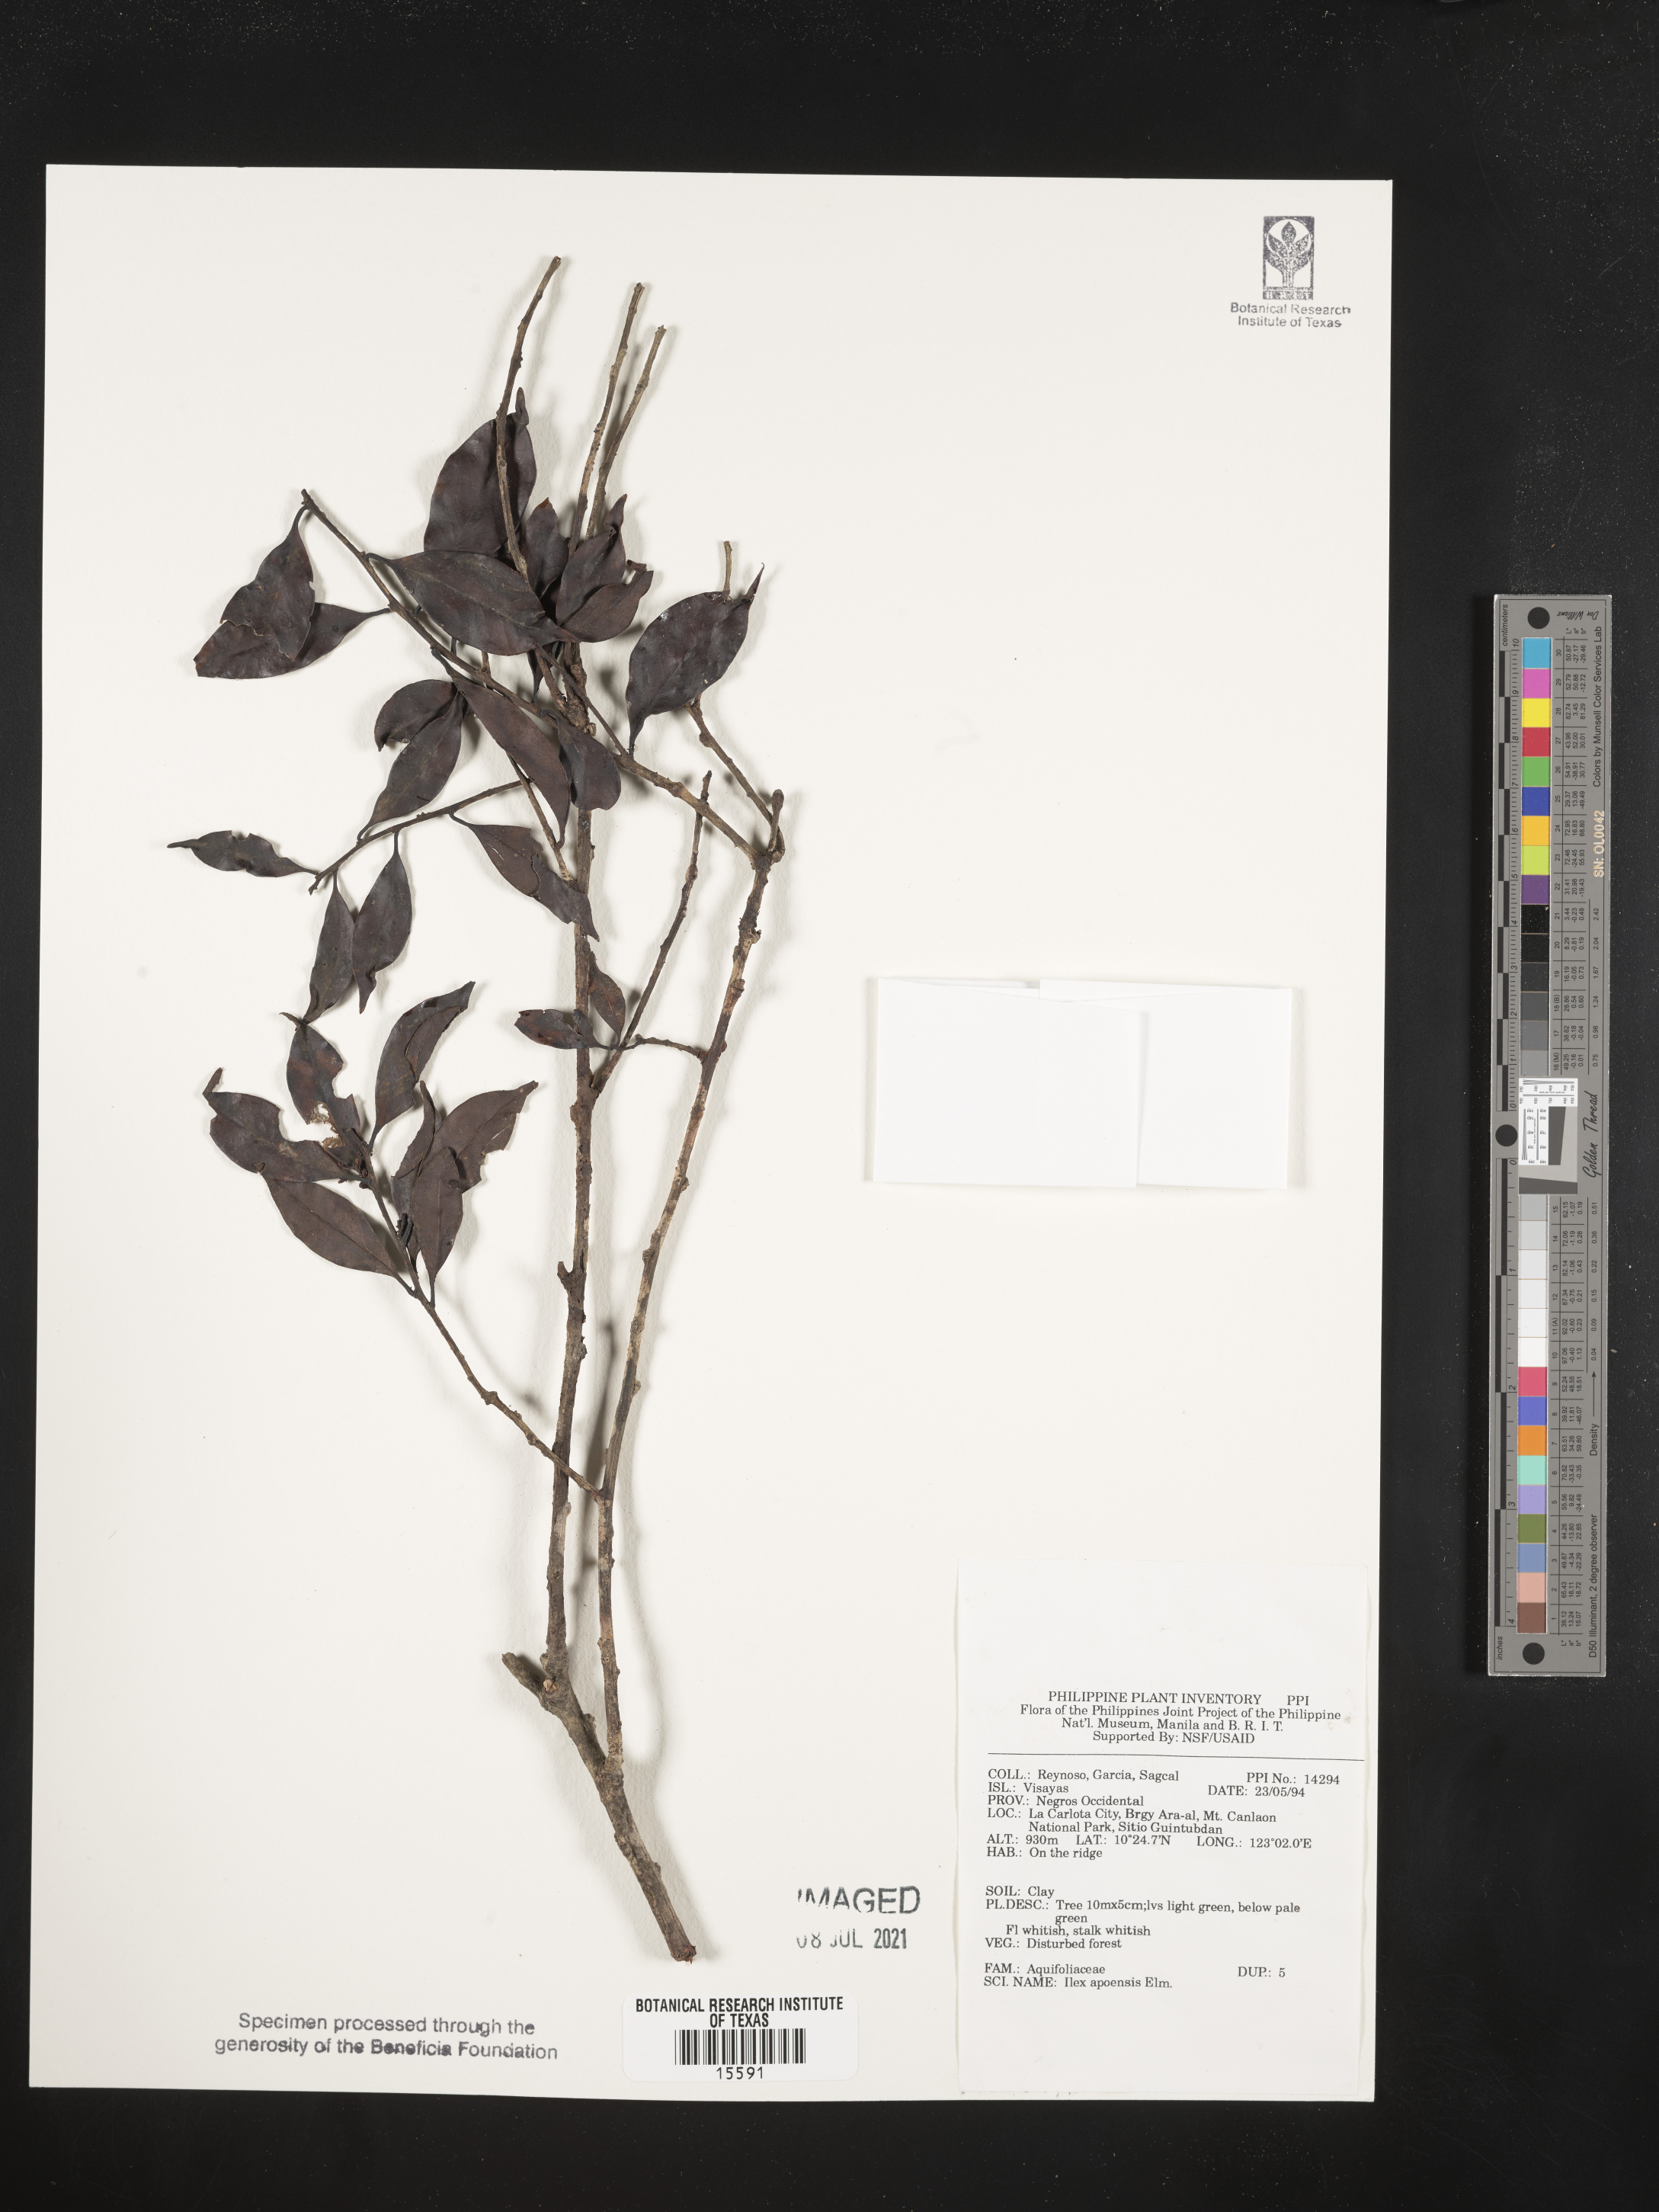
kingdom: Plantae
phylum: Tracheophyta
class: Magnoliopsida
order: Aquifoliales
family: Aquifoliaceae
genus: Ilex
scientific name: Ilex malaccensis
